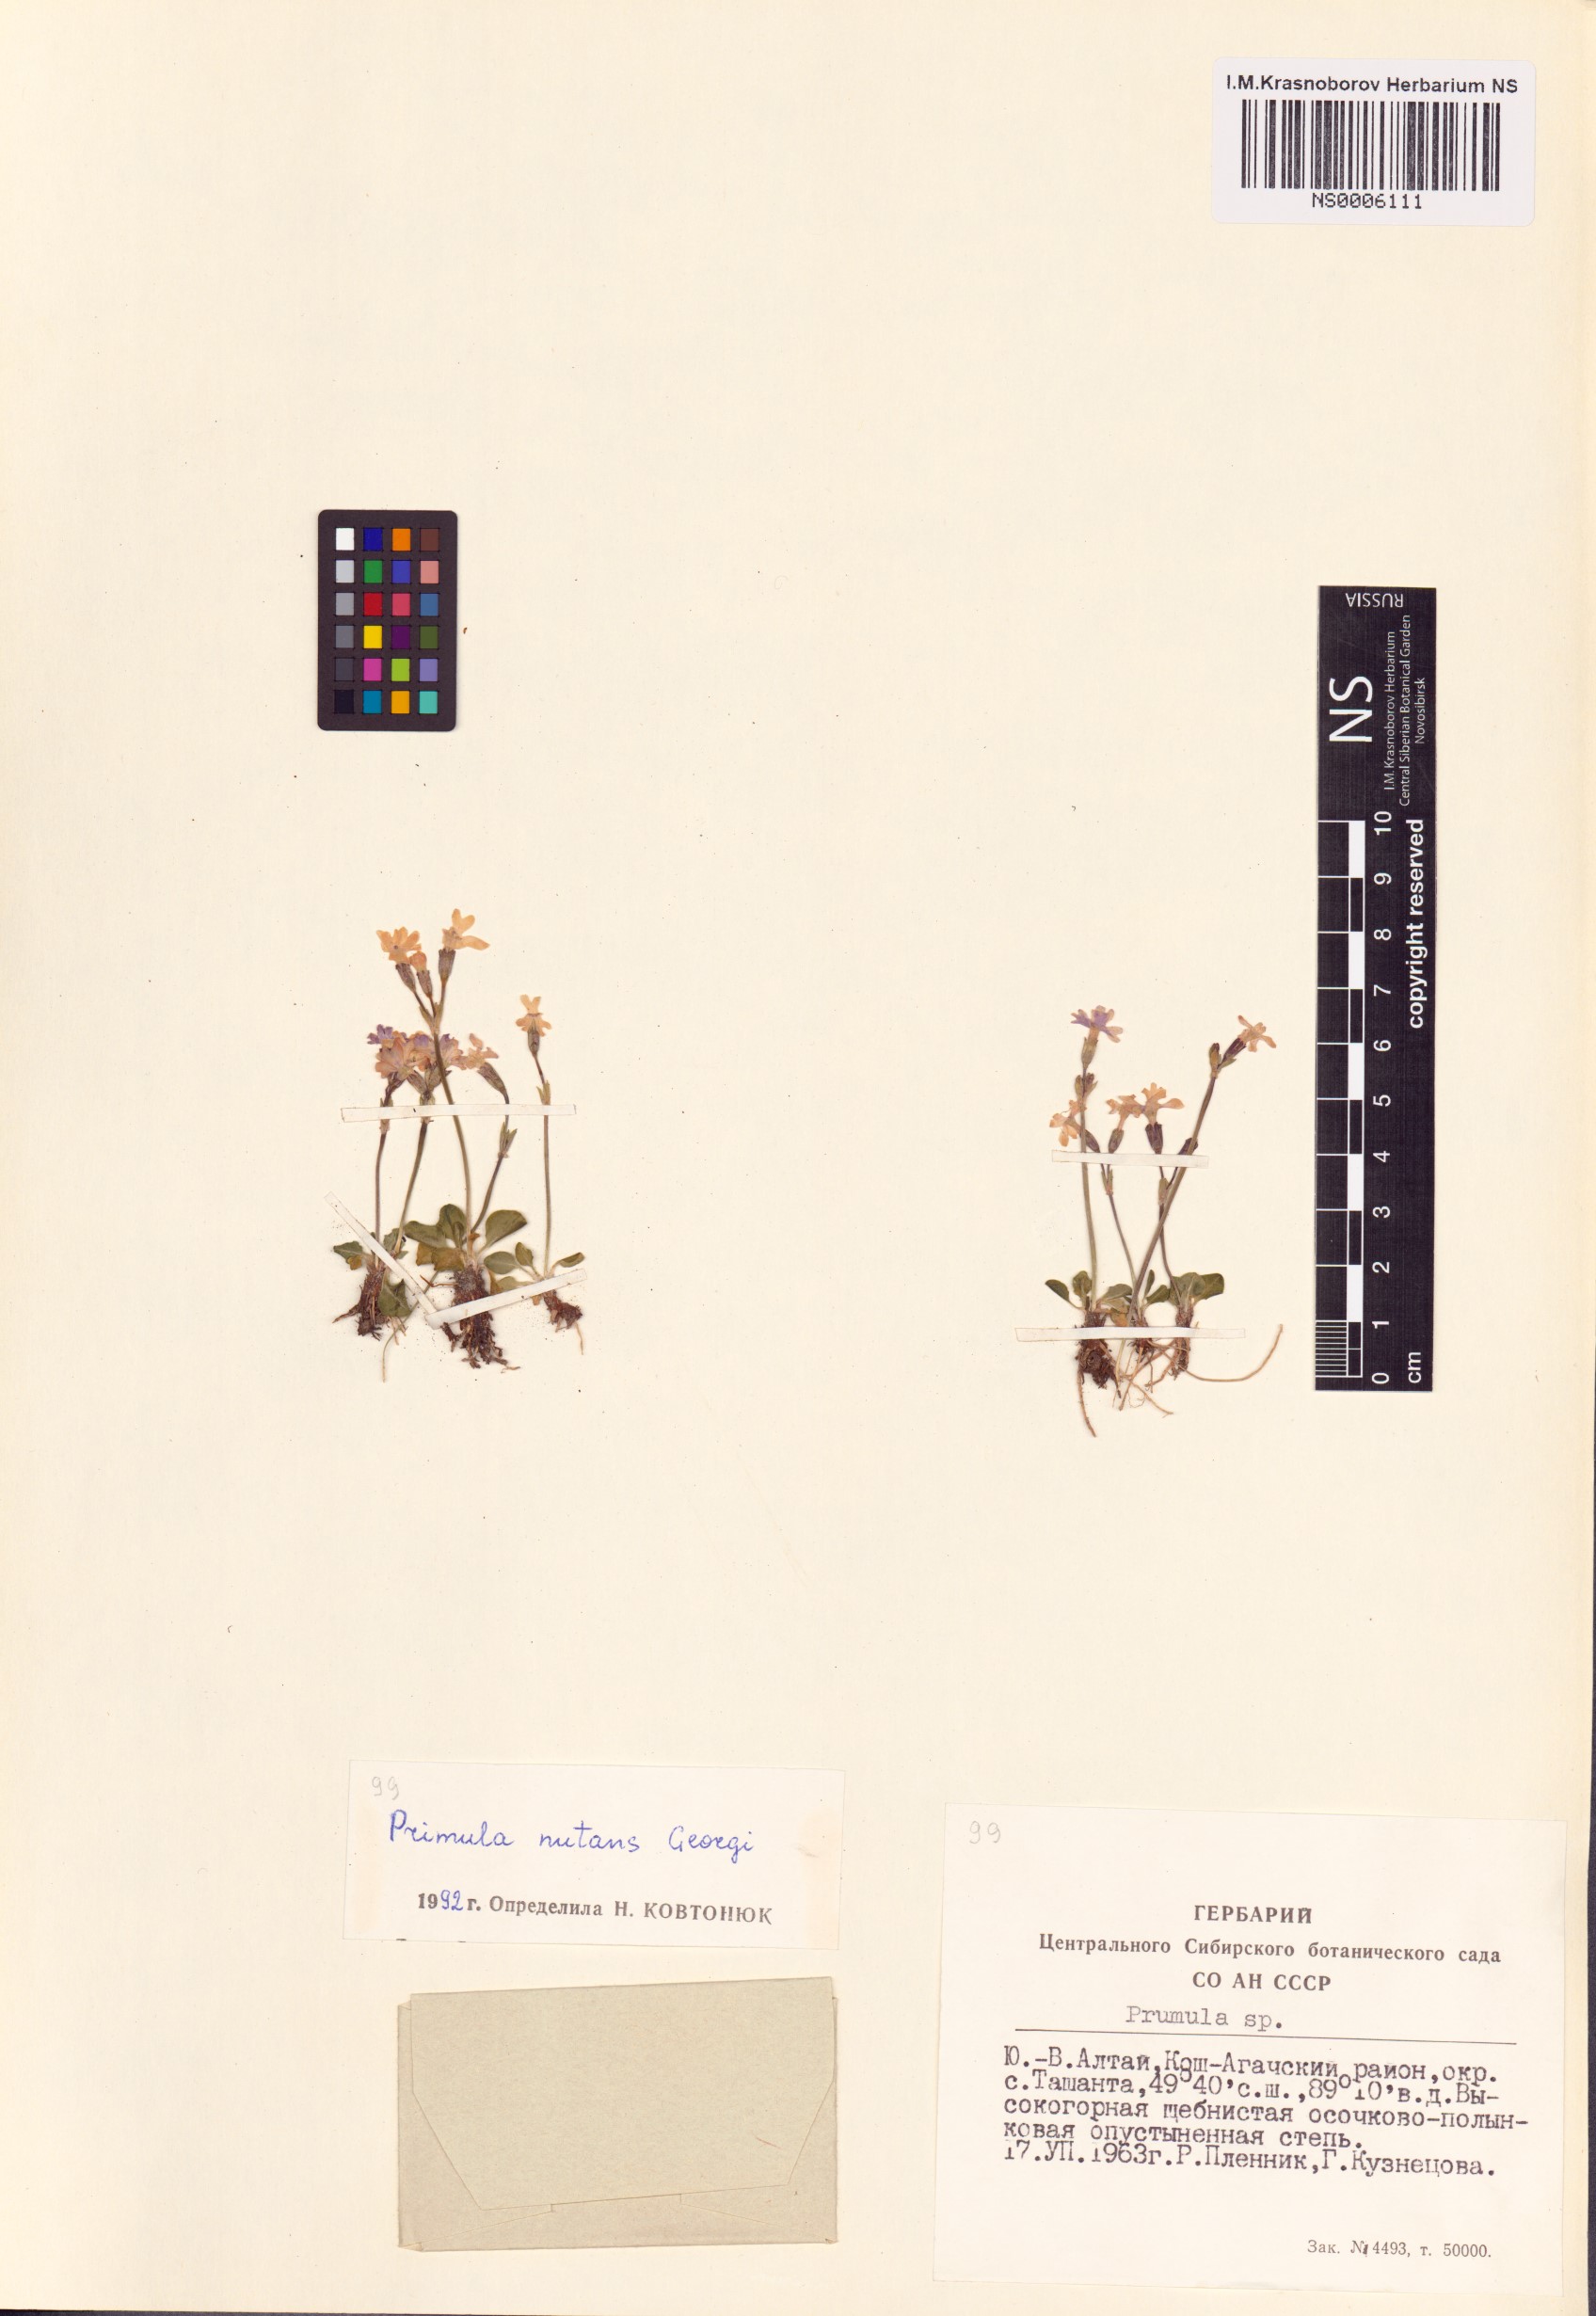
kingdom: Plantae
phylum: Tracheophyta
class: Magnoliopsida
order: Ericales
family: Primulaceae
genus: Primula
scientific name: Primula nutans
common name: Siberian primrose
